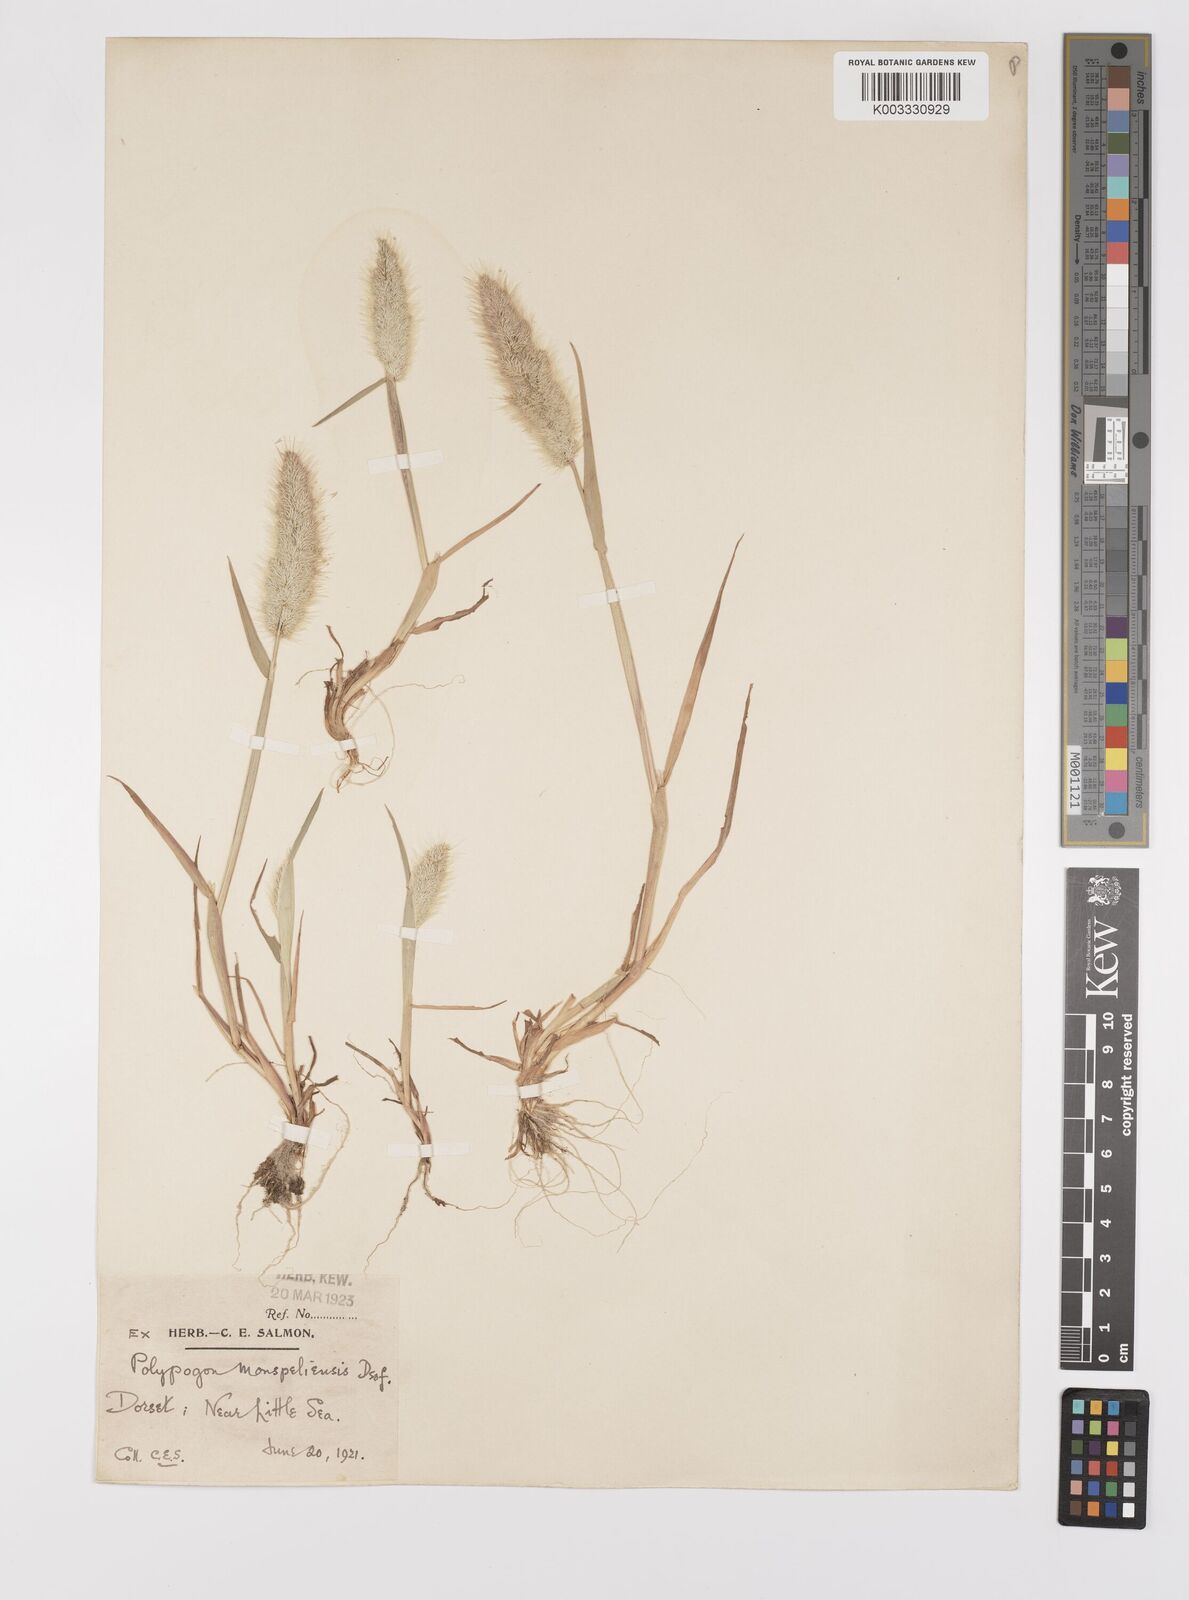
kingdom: Plantae
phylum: Tracheophyta
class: Liliopsida
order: Poales
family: Poaceae
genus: Polypogon
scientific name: Polypogon monspeliensis
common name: Annual rabbitsfoot grass
